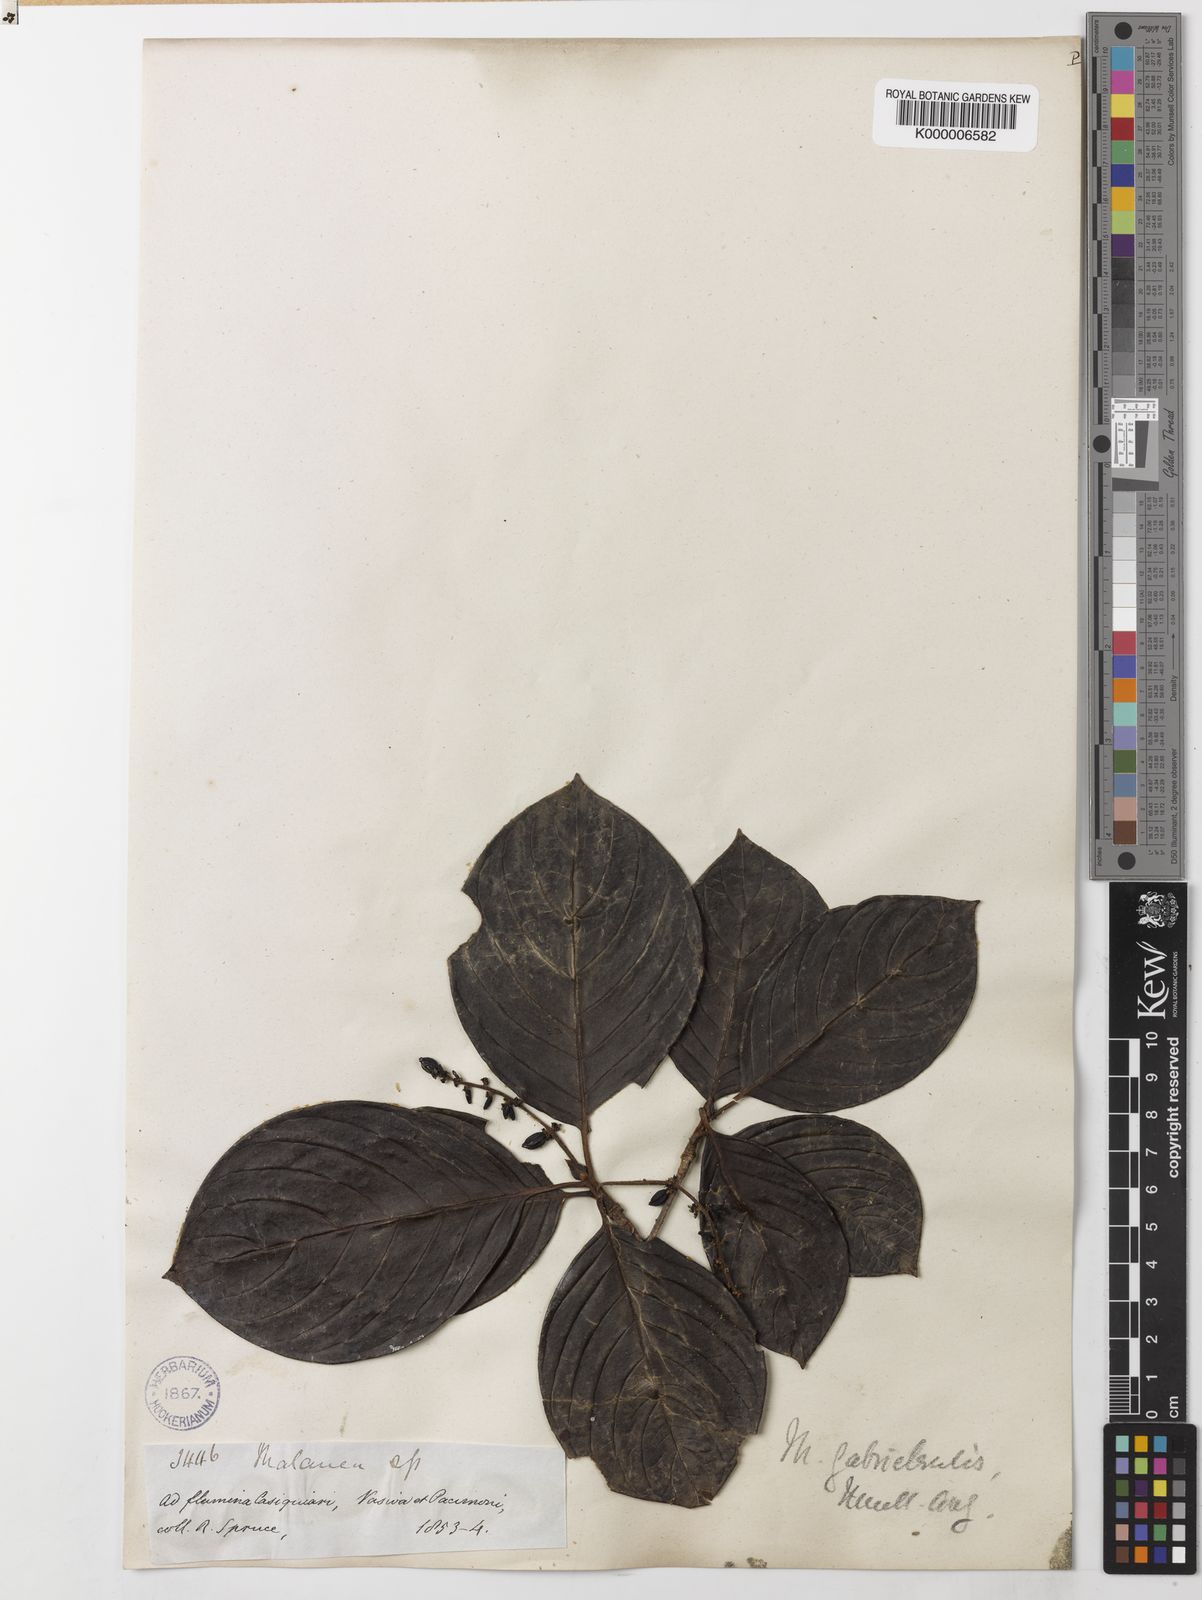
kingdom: Plantae
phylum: Tracheophyta
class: Magnoliopsida
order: Gentianales
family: Rubiaceae
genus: Malanea
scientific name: Malanea
